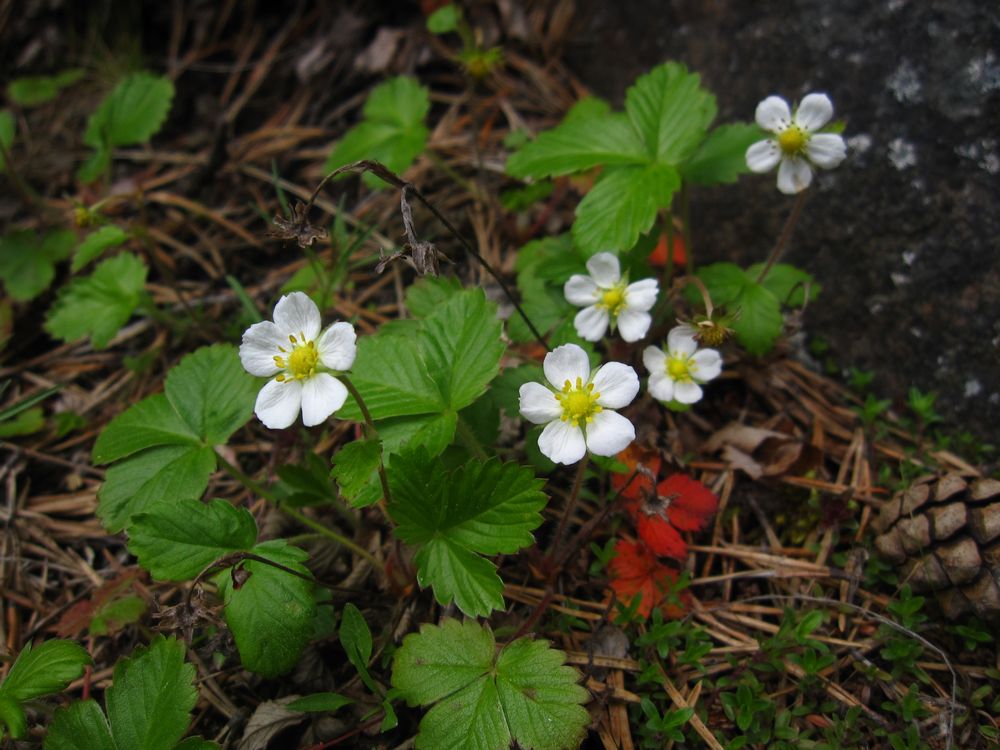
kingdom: Plantae
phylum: Tracheophyta
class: Magnoliopsida
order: Rosales
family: Rosaceae
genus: Fragaria
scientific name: Fragaria vesca
